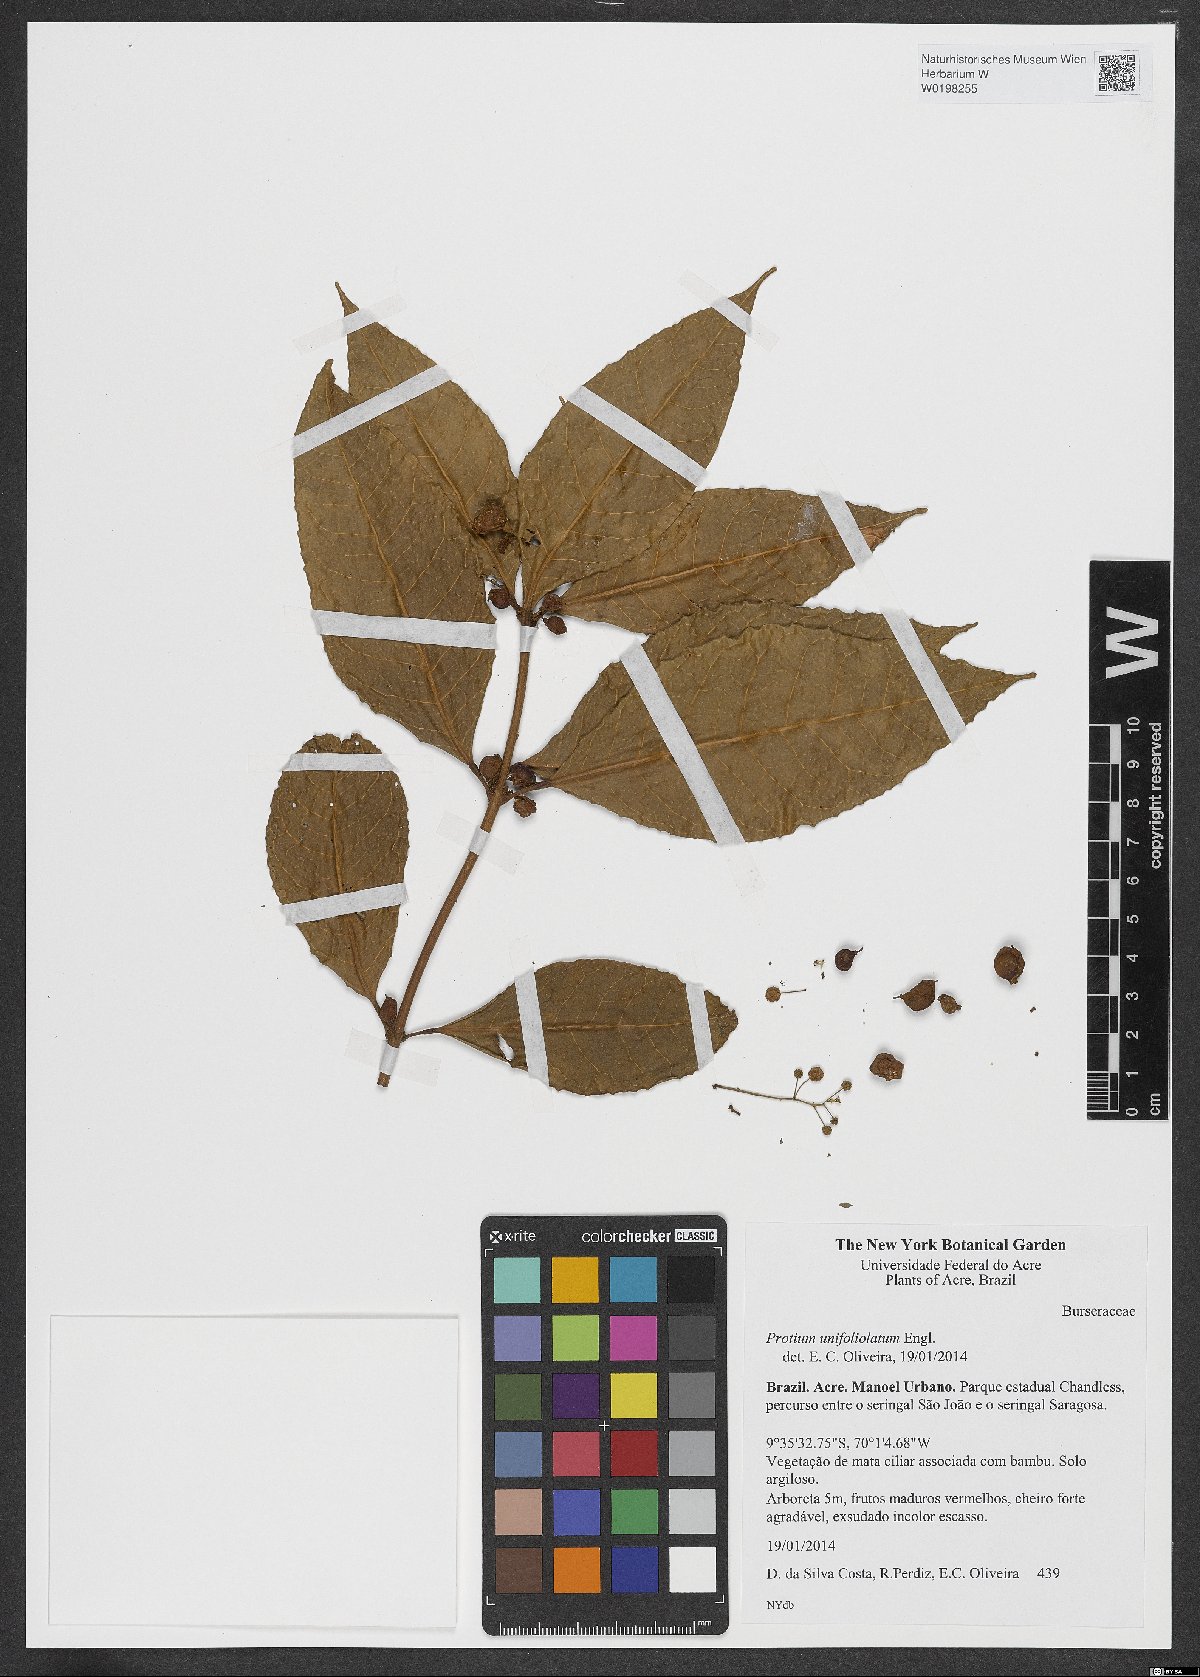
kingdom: Plantae
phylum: Tracheophyta
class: Magnoliopsida
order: Sapindales
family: Burseraceae
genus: Protium
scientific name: Protium unifoliolatum
